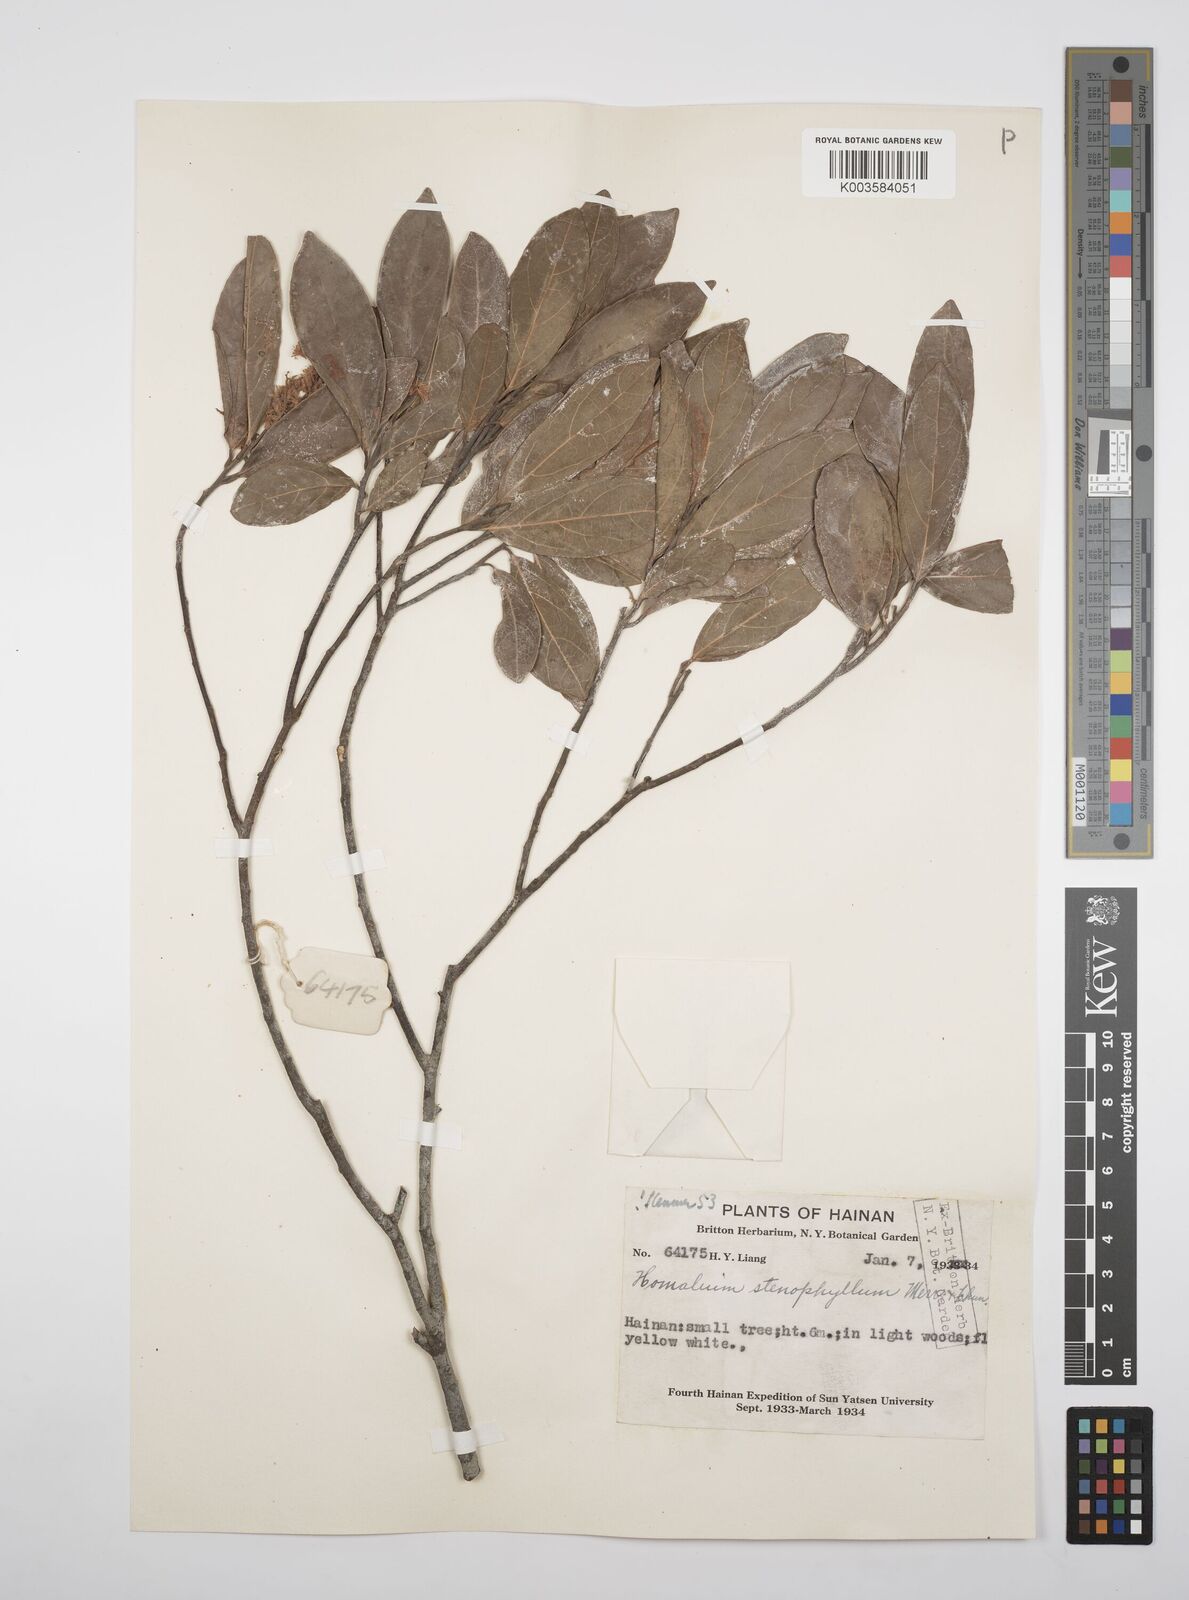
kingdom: Plantae
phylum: Tracheophyta
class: Magnoliopsida
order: Malpighiales
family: Salicaceae
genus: Homalium
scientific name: Homalium stenophyllum
